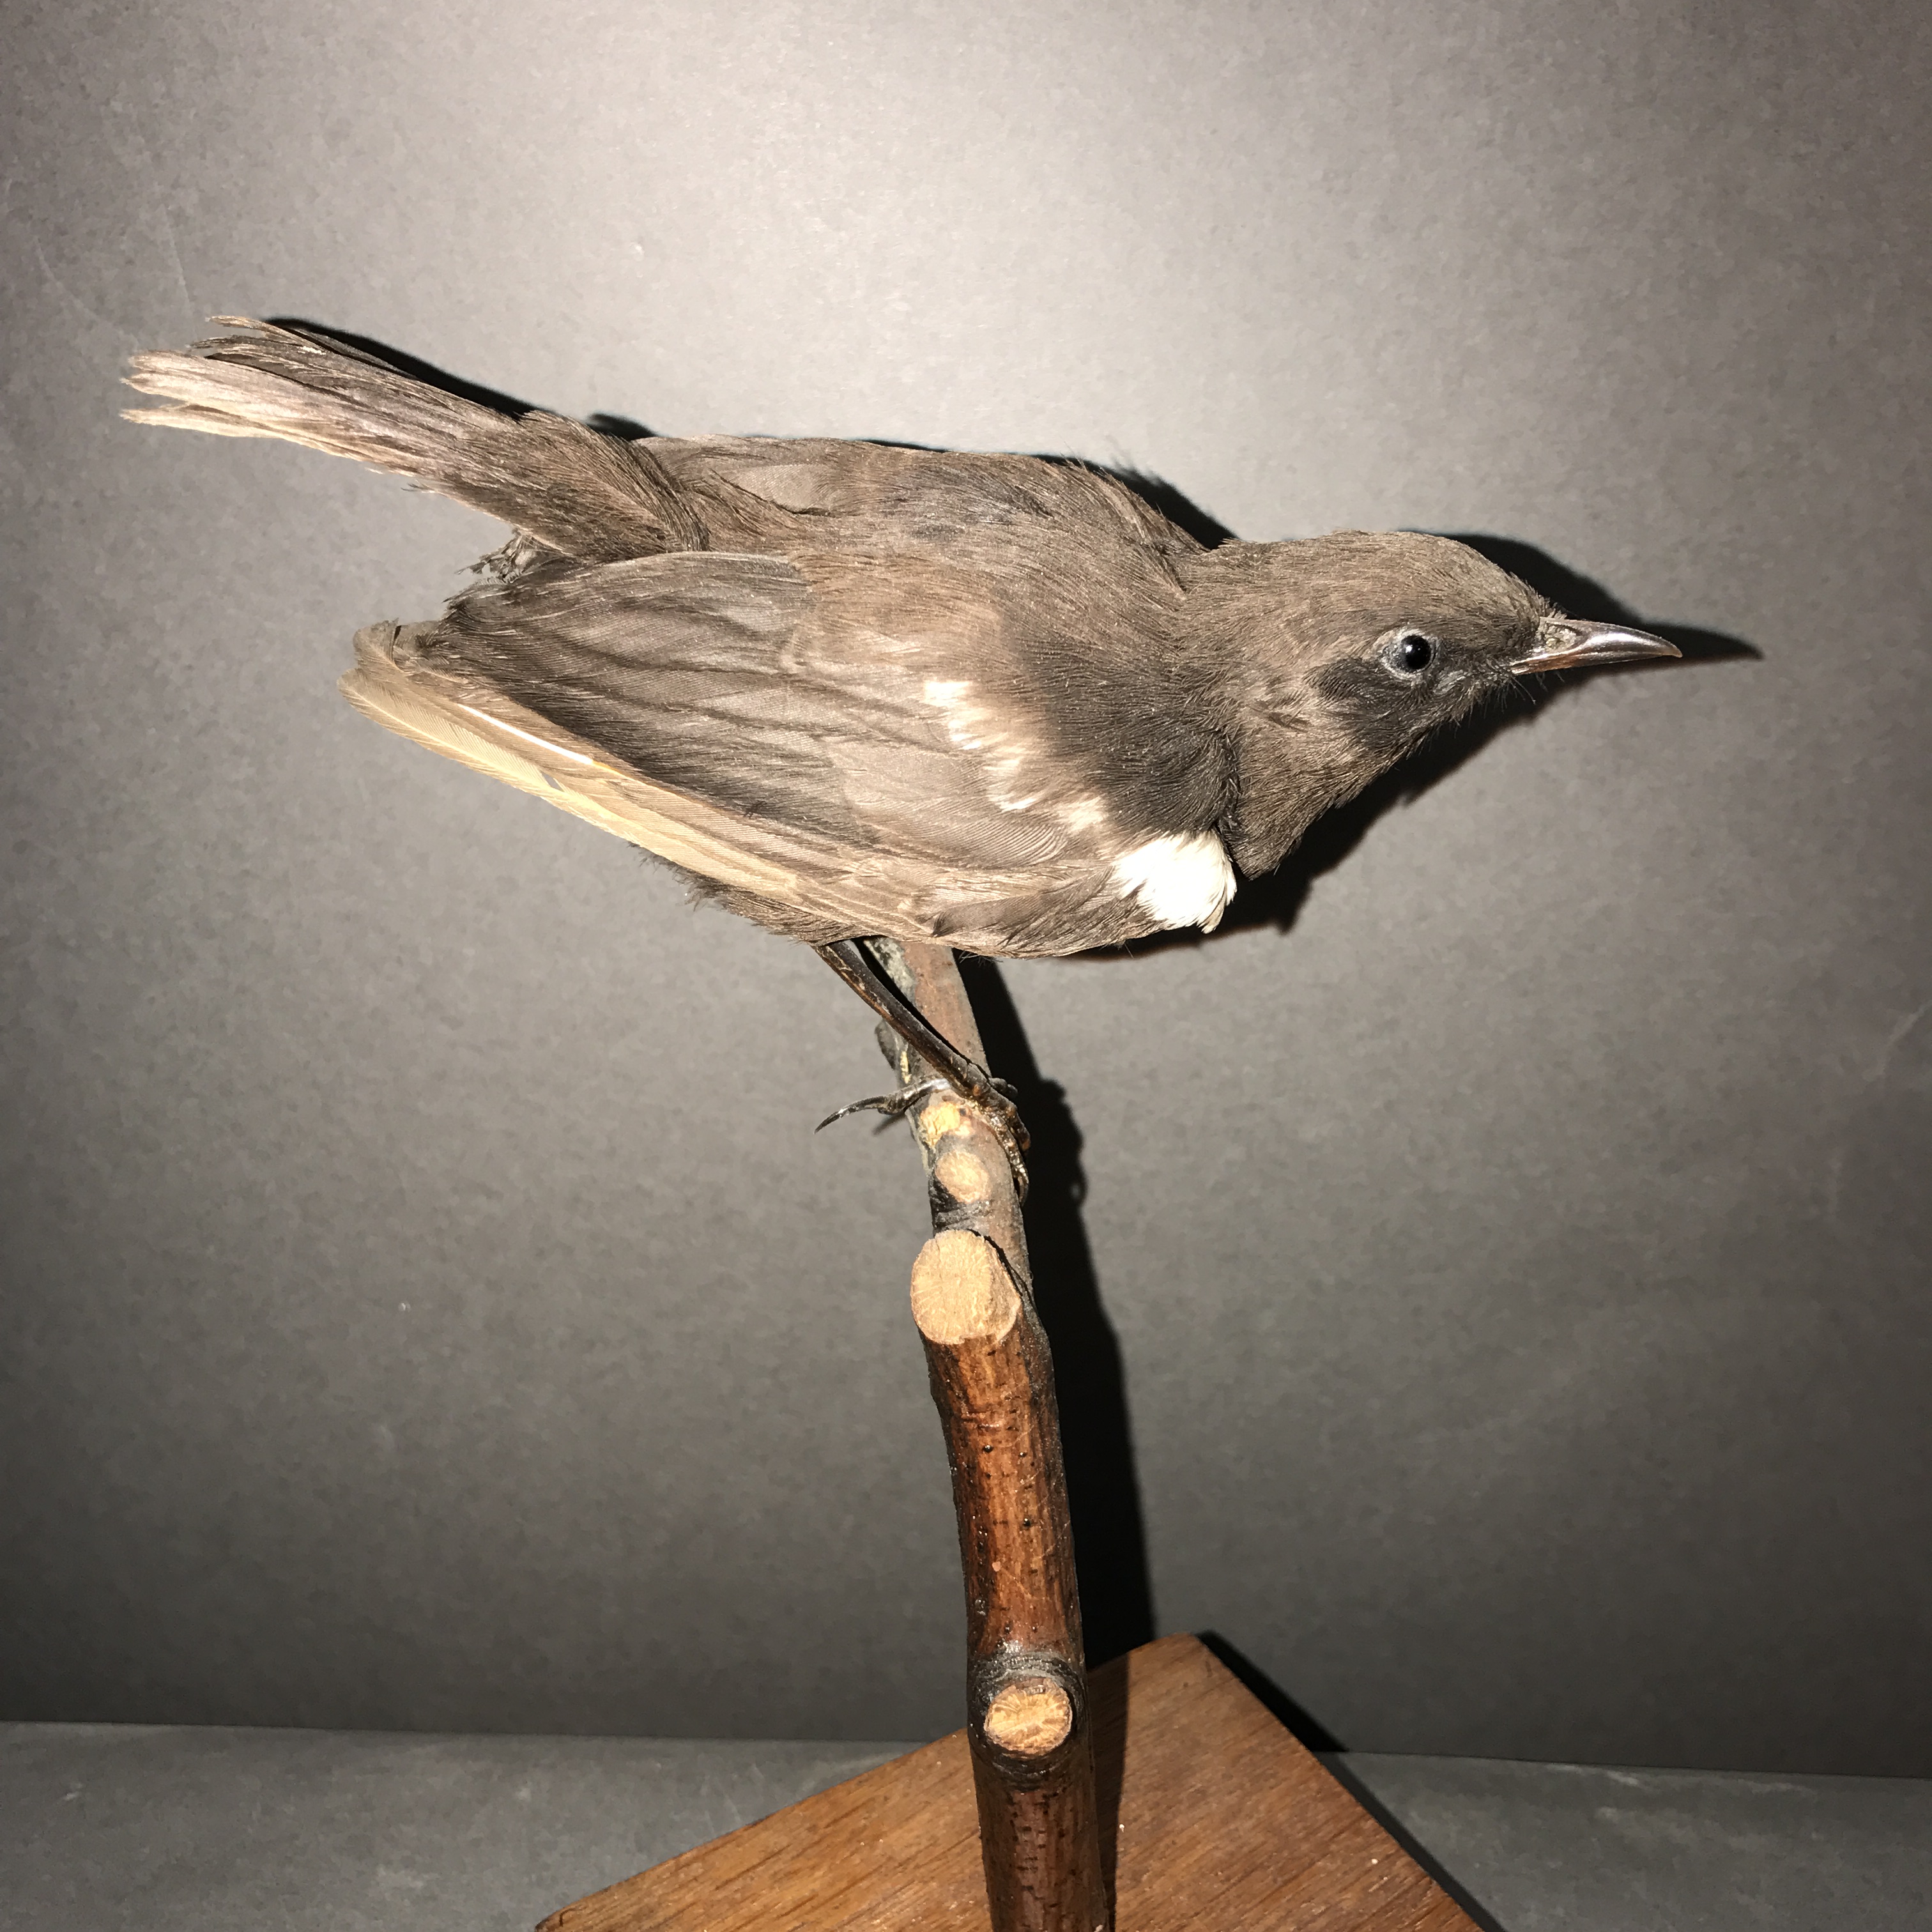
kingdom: Animalia
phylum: Chordata
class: Aves
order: Passeriformes
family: Muscicapidae
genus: Myrmecocichla
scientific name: Myrmecocichla nigra
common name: Sooty chat
